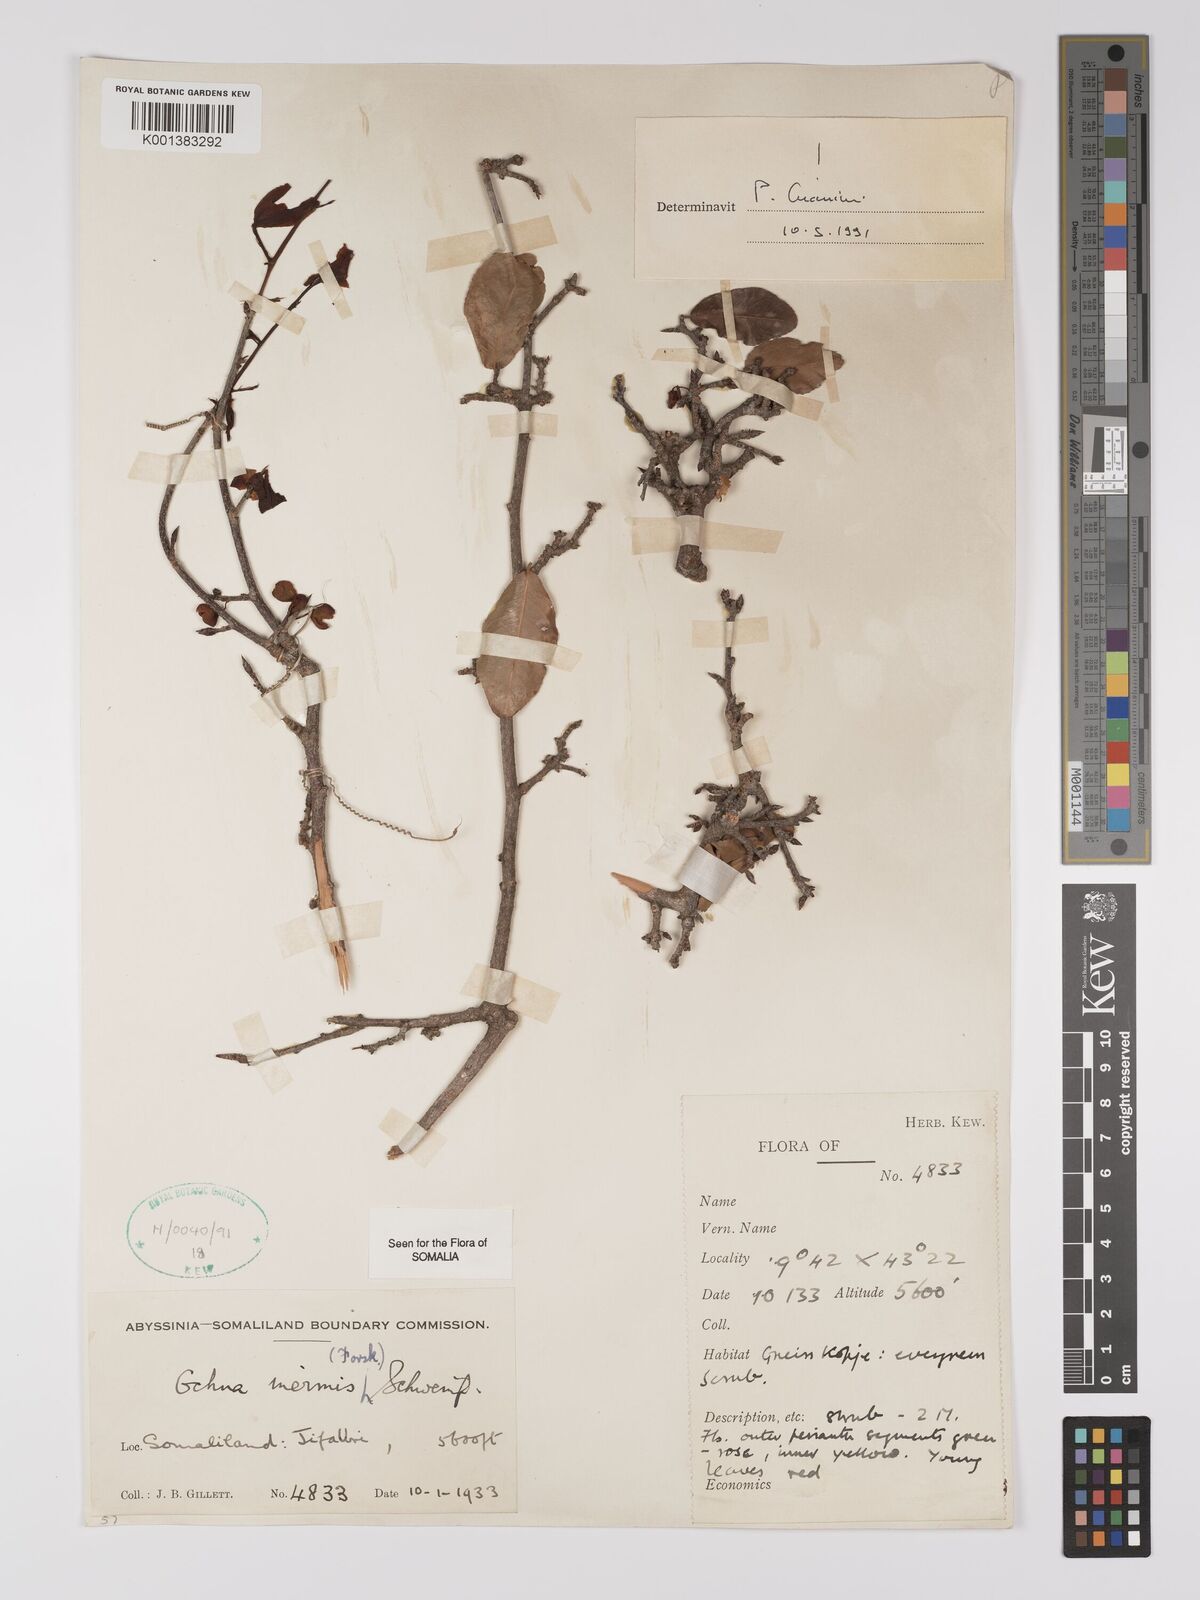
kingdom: Plantae
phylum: Tracheophyta
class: Magnoliopsida
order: Malpighiales
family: Ochnaceae
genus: Ochna
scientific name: Ochna inermis
